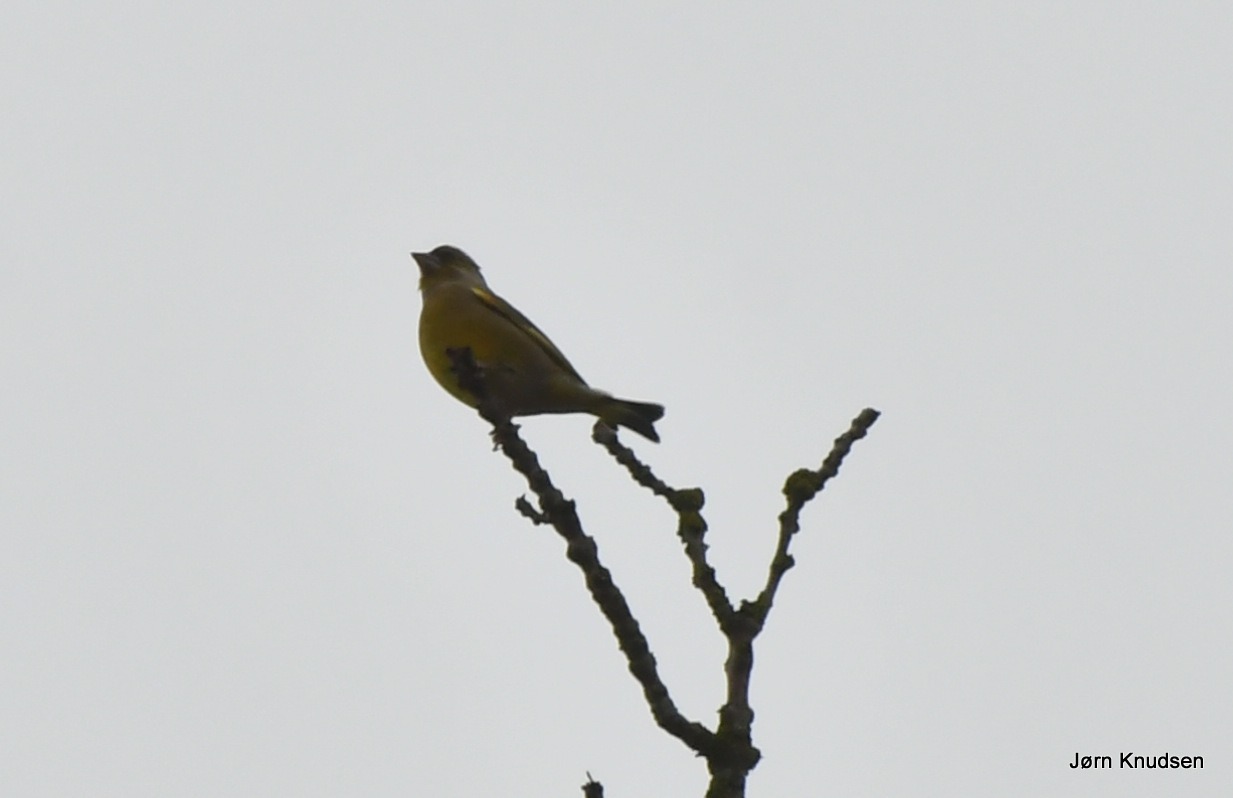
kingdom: Plantae
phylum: Tracheophyta
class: Liliopsida
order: Poales
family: Poaceae
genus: Chloris
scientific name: Chloris chloris
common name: Grønirisk
